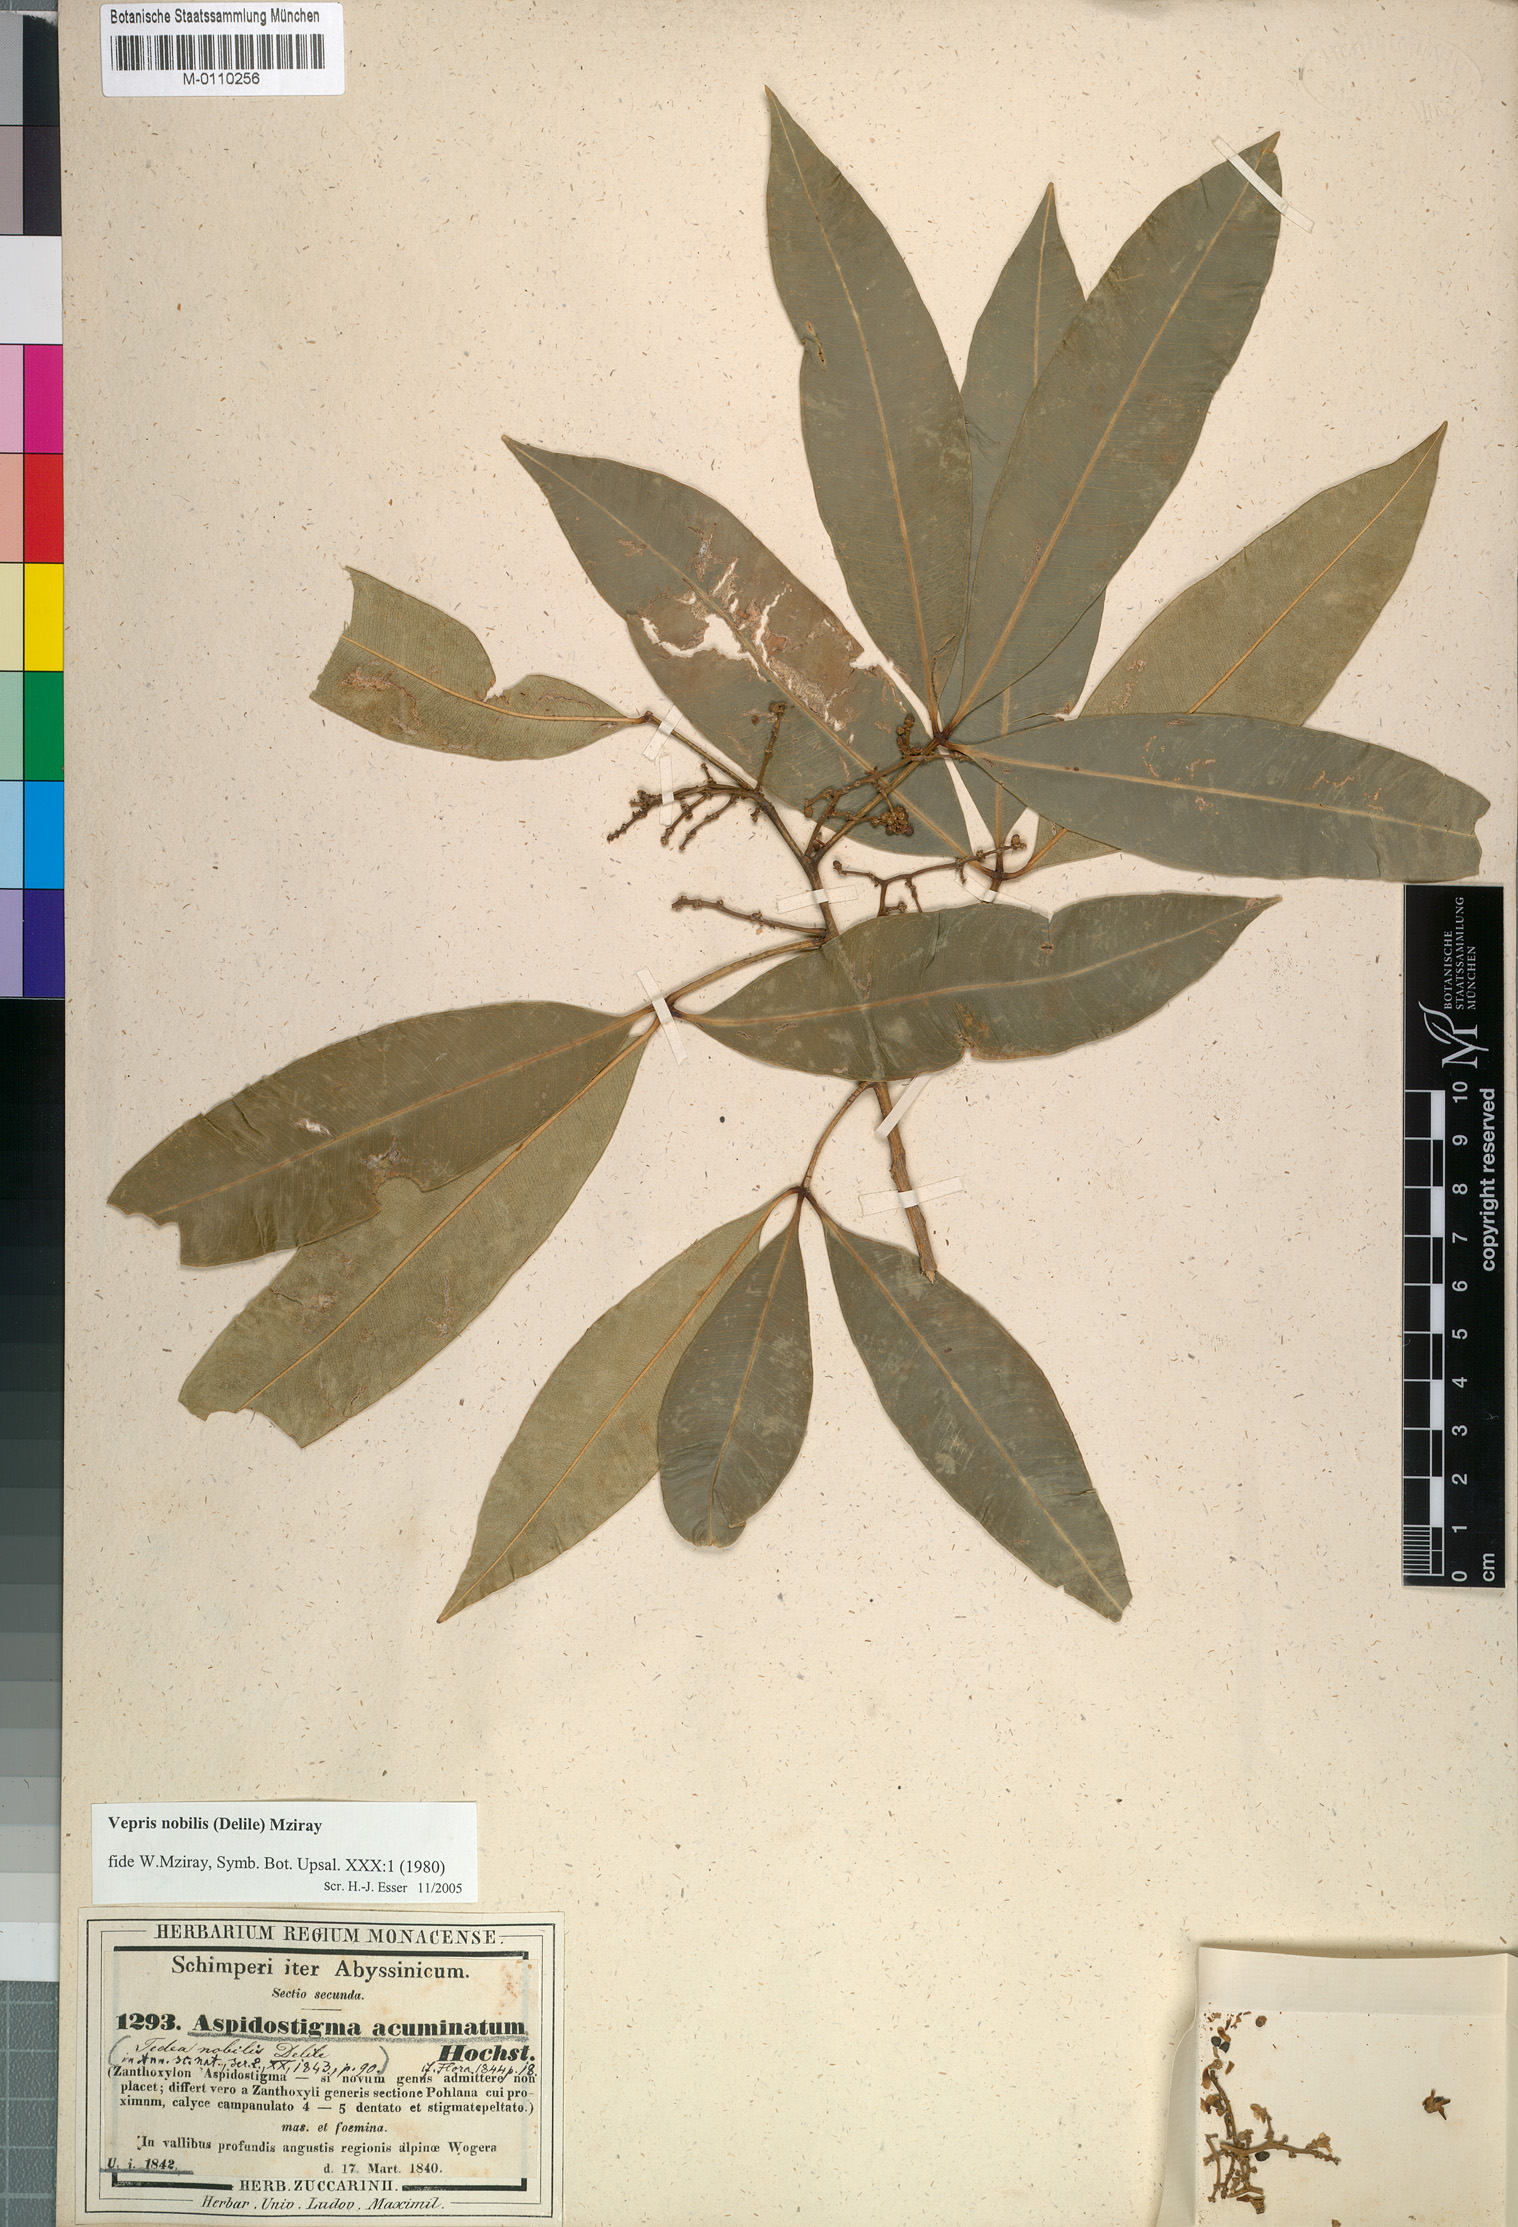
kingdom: Plantae
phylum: Tracheophyta
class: Magnoliopsida
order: Sapindales
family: Rutaceae
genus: Vepris
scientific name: Vepris nobilis
